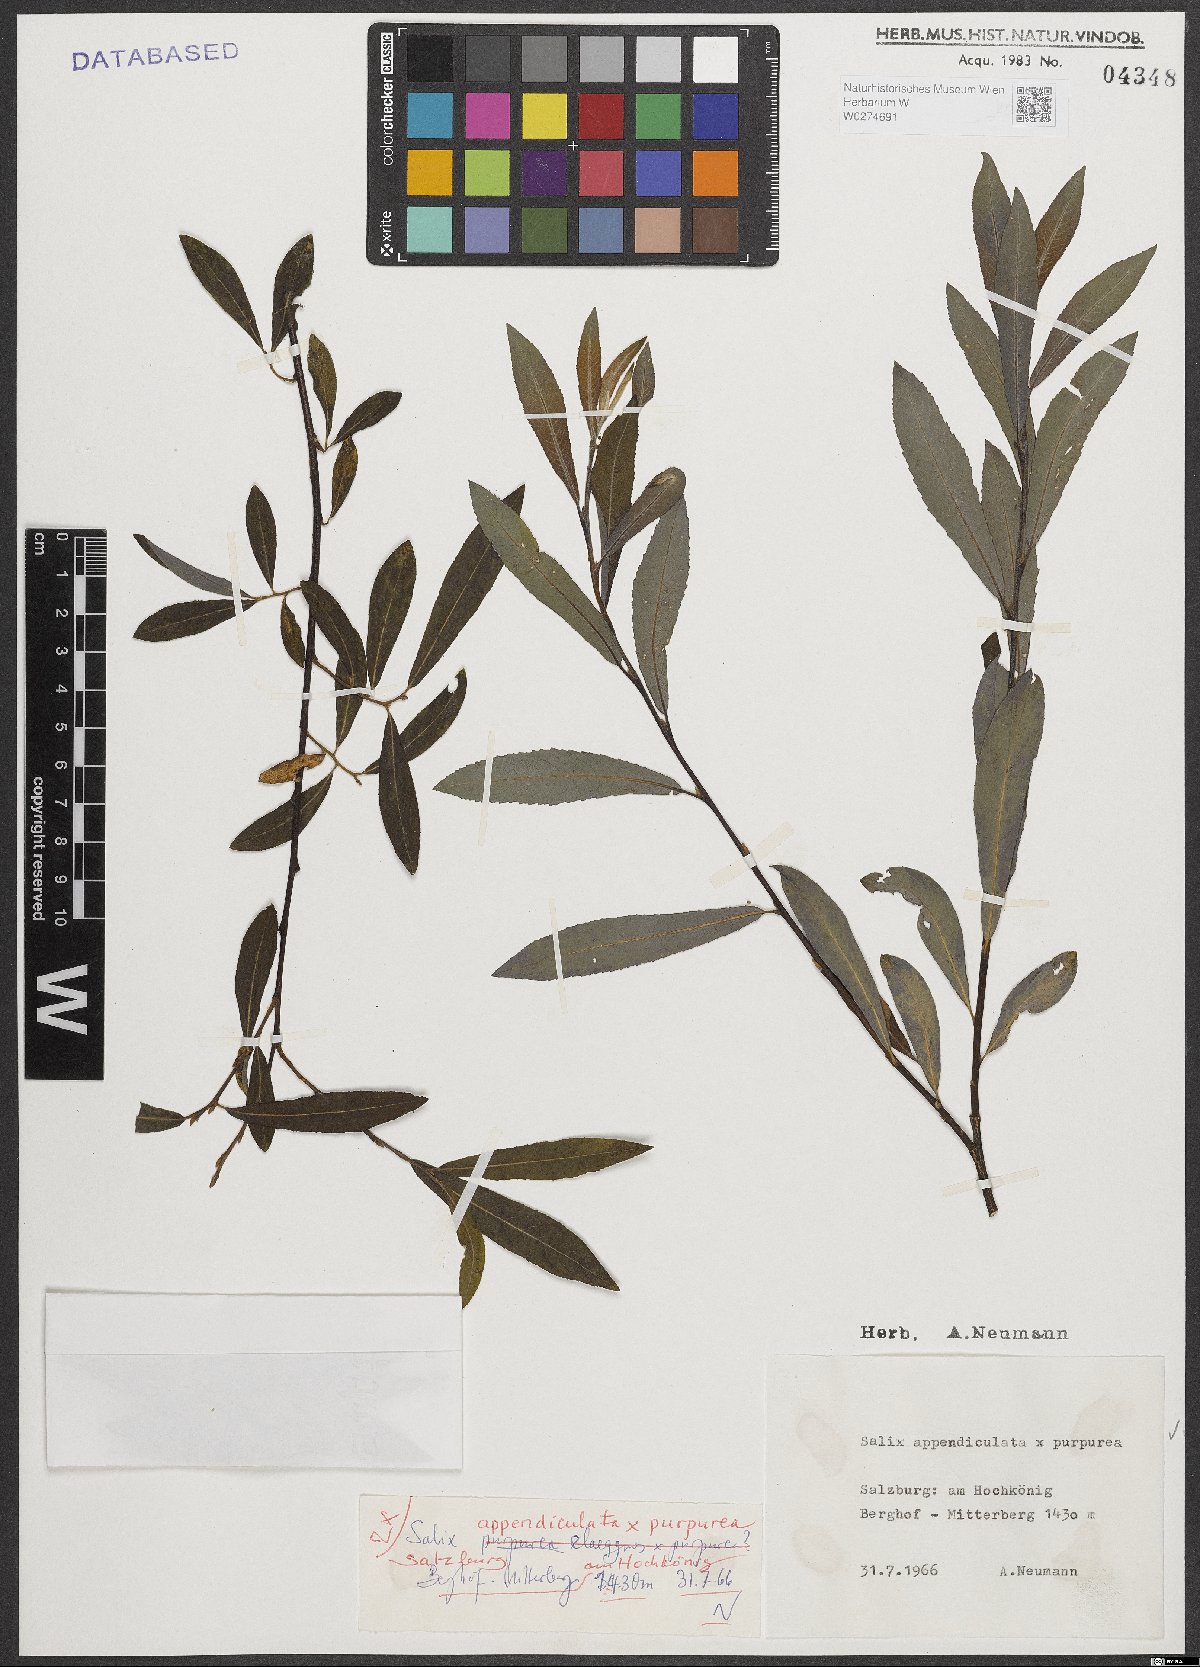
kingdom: Plantae
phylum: Tracheophyta
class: Magnoliopsida
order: Malpighiales
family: Salicaceae
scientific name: Salicaceae
